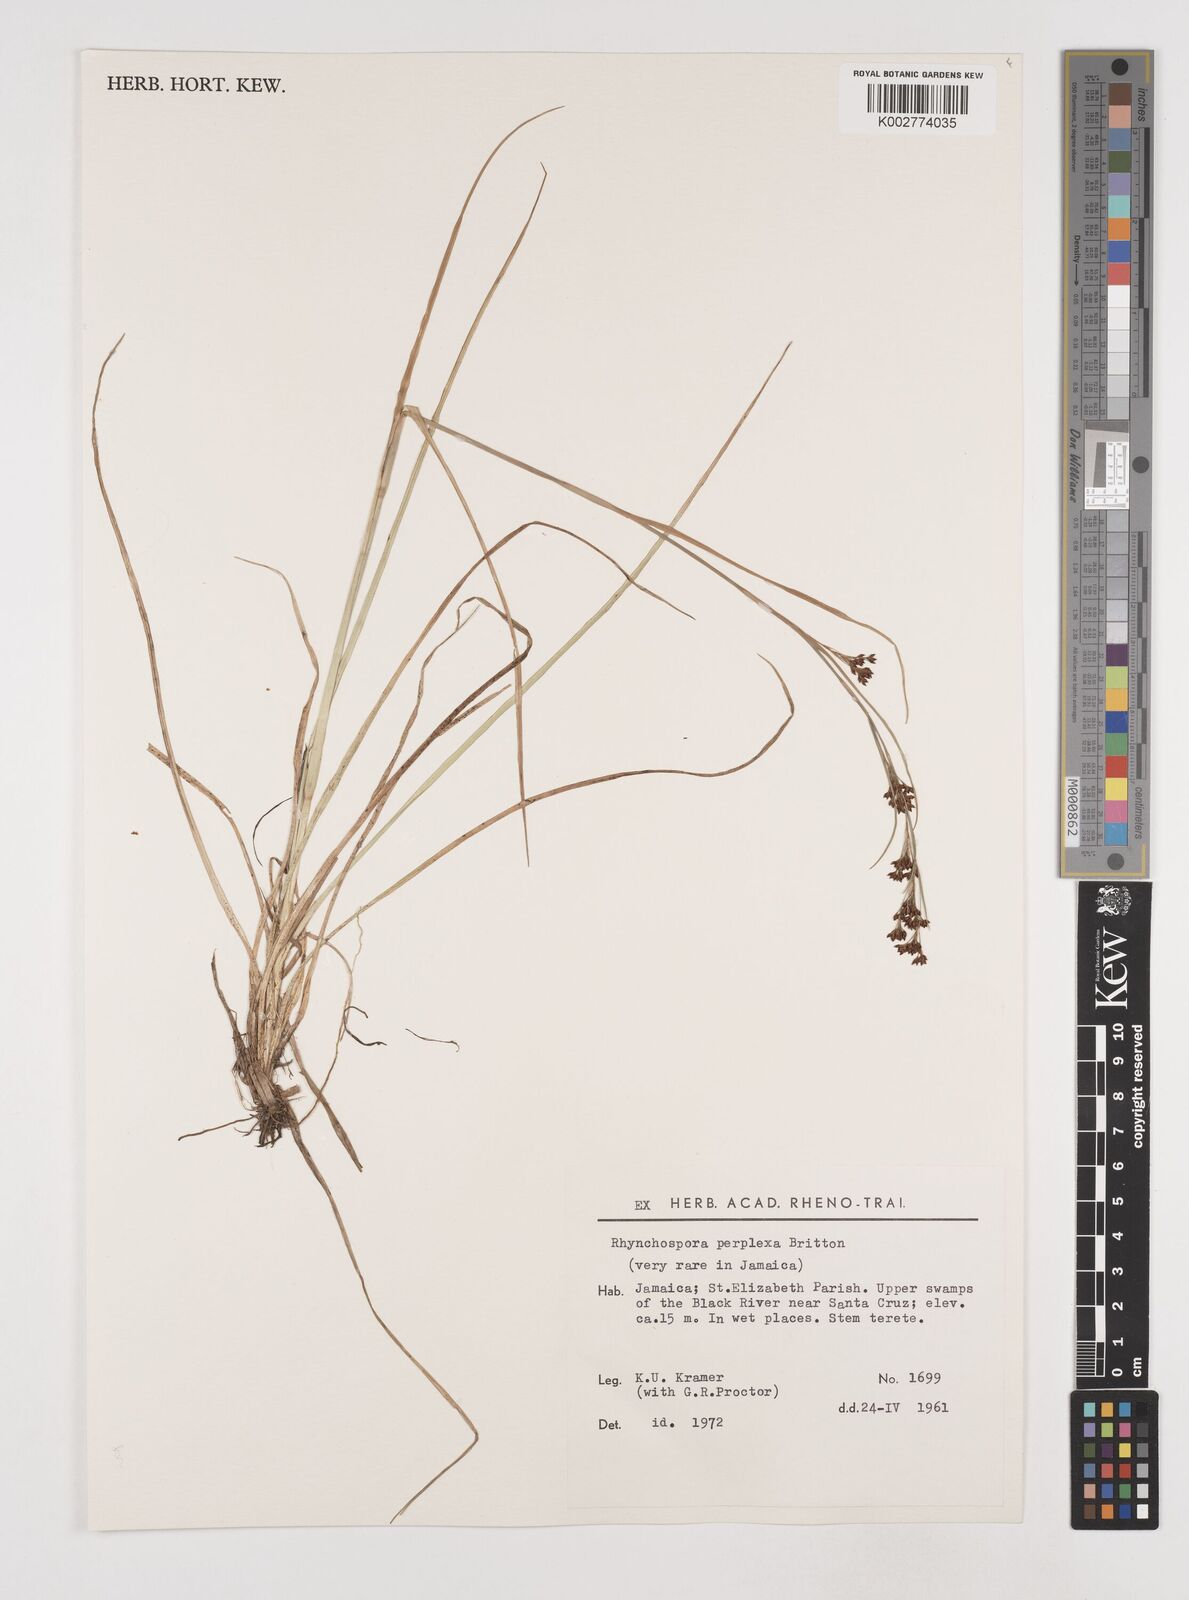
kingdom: Plantae
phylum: Tracheophyta
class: Liliopsida
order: Poales
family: Cyperaceae
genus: Rhynchospora
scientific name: Rhynchospora perplexa
